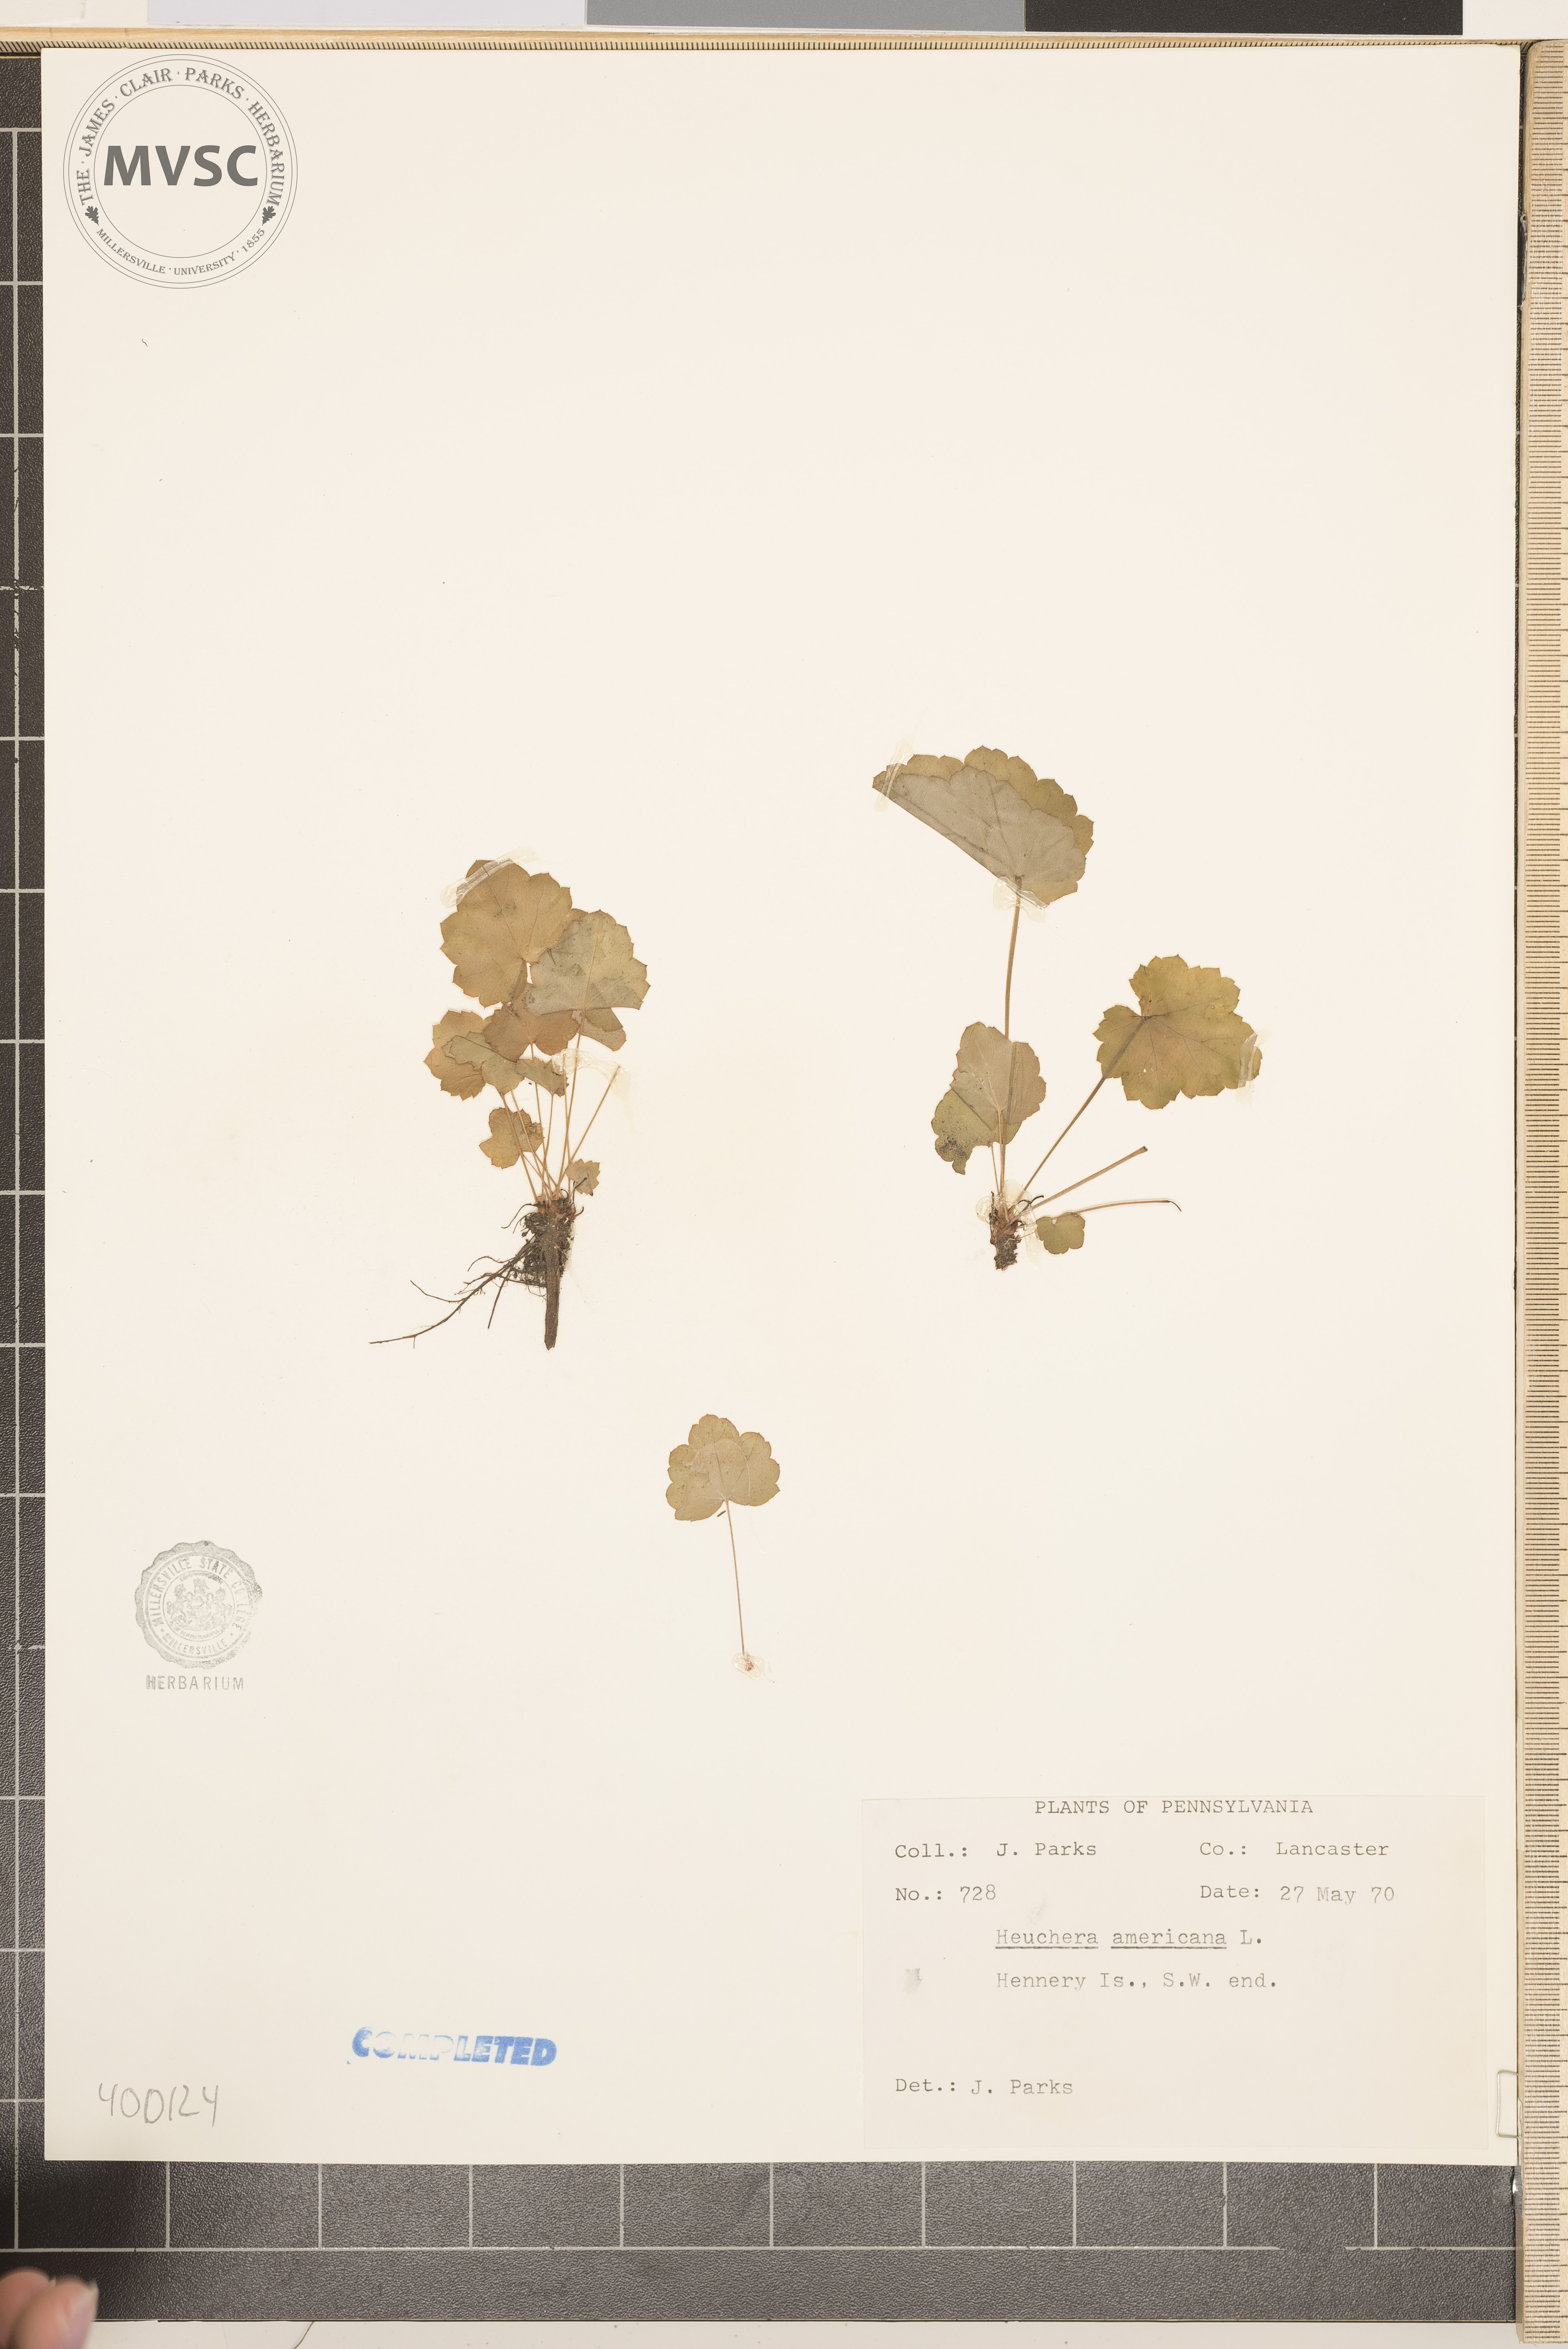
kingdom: Plantae
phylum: Tracheophyta
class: Magnoliopsida
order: Saxifragales
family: Saxifragaceae
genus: Heuchera
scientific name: Heuchera americana
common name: Alumroot
